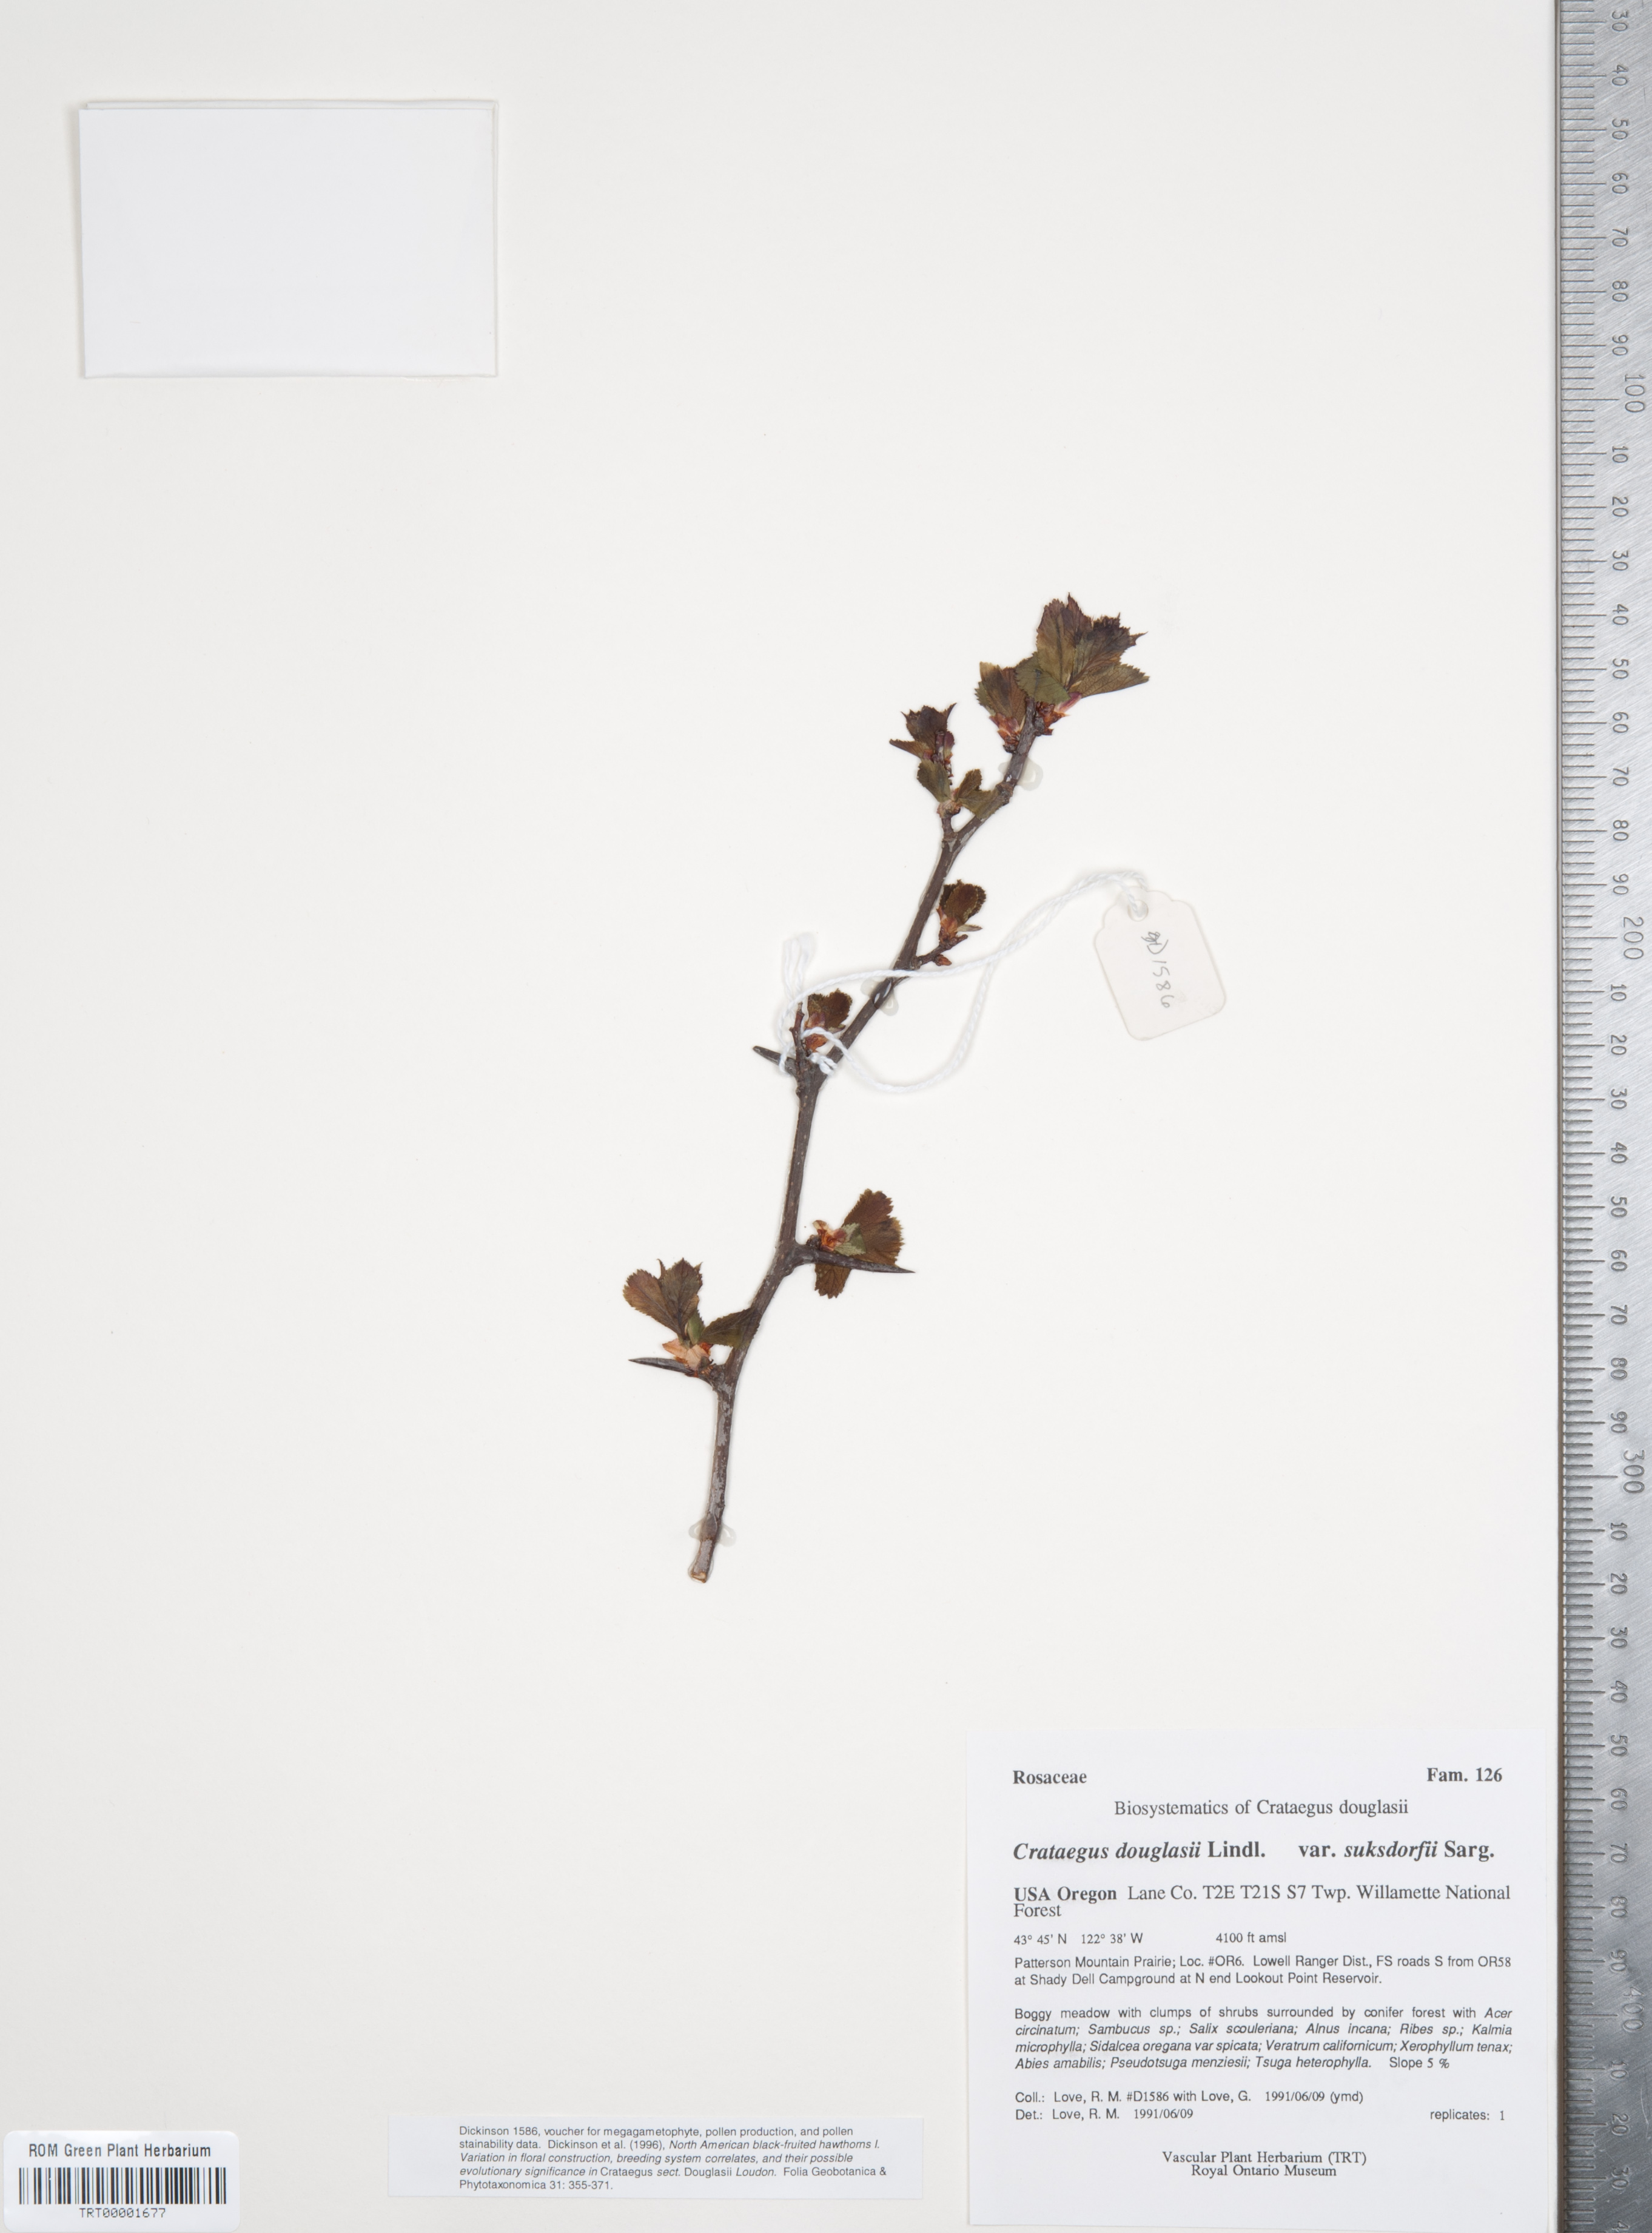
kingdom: Plantae
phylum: Tracheophyta
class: Magnoliopsida
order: Rosales
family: Rosaceae
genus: Crataegus
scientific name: Crataegus gaylussacia
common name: Huckleberry hawthorn
